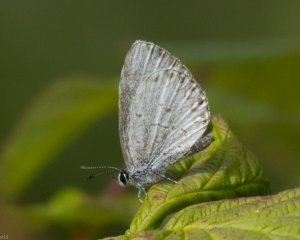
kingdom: Animalia
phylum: Arthropoda
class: Insecta
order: Lepidoptera
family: Lycaenidae
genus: Cyaniris
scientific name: Cyaniris neglecta
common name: Summer Azure
